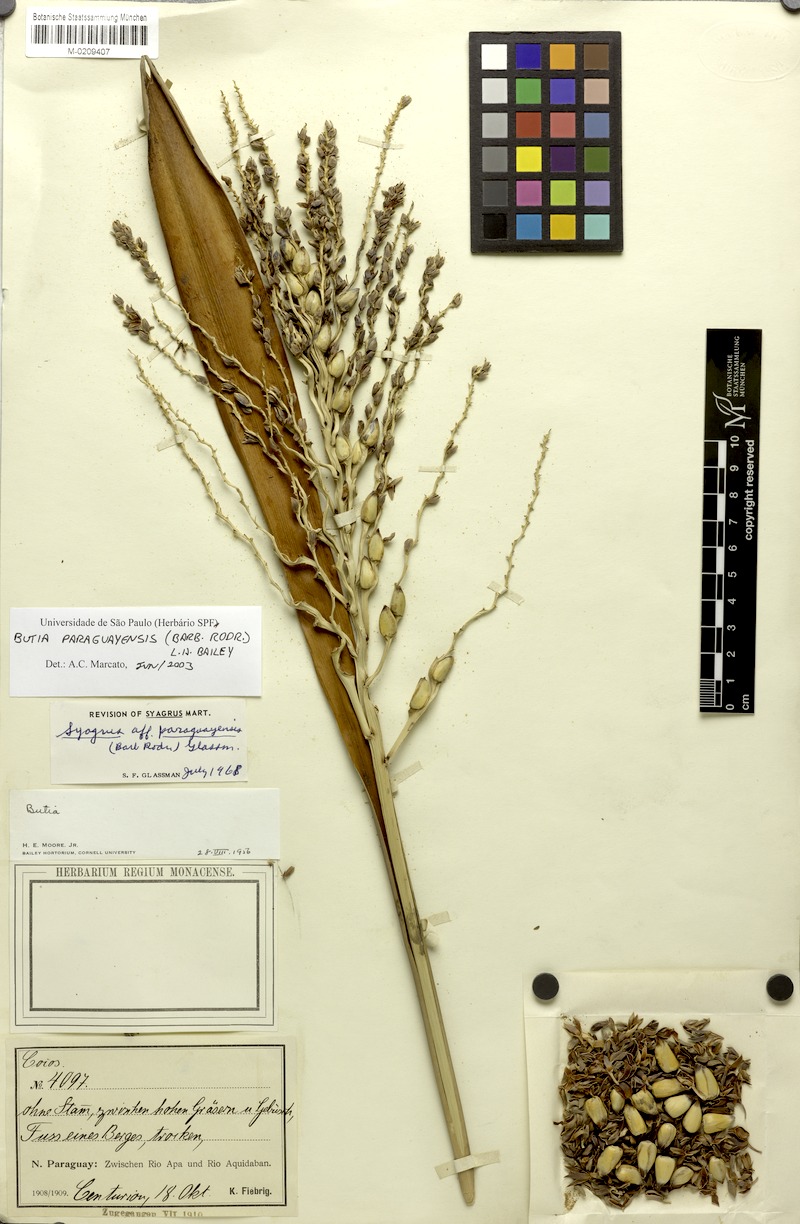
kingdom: Plantae
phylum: Tracheophyta
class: Liliopsida
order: Arecales
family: Arecaceae
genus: Butia
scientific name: Butia paraguayensis
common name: Dwarf yatay palm
